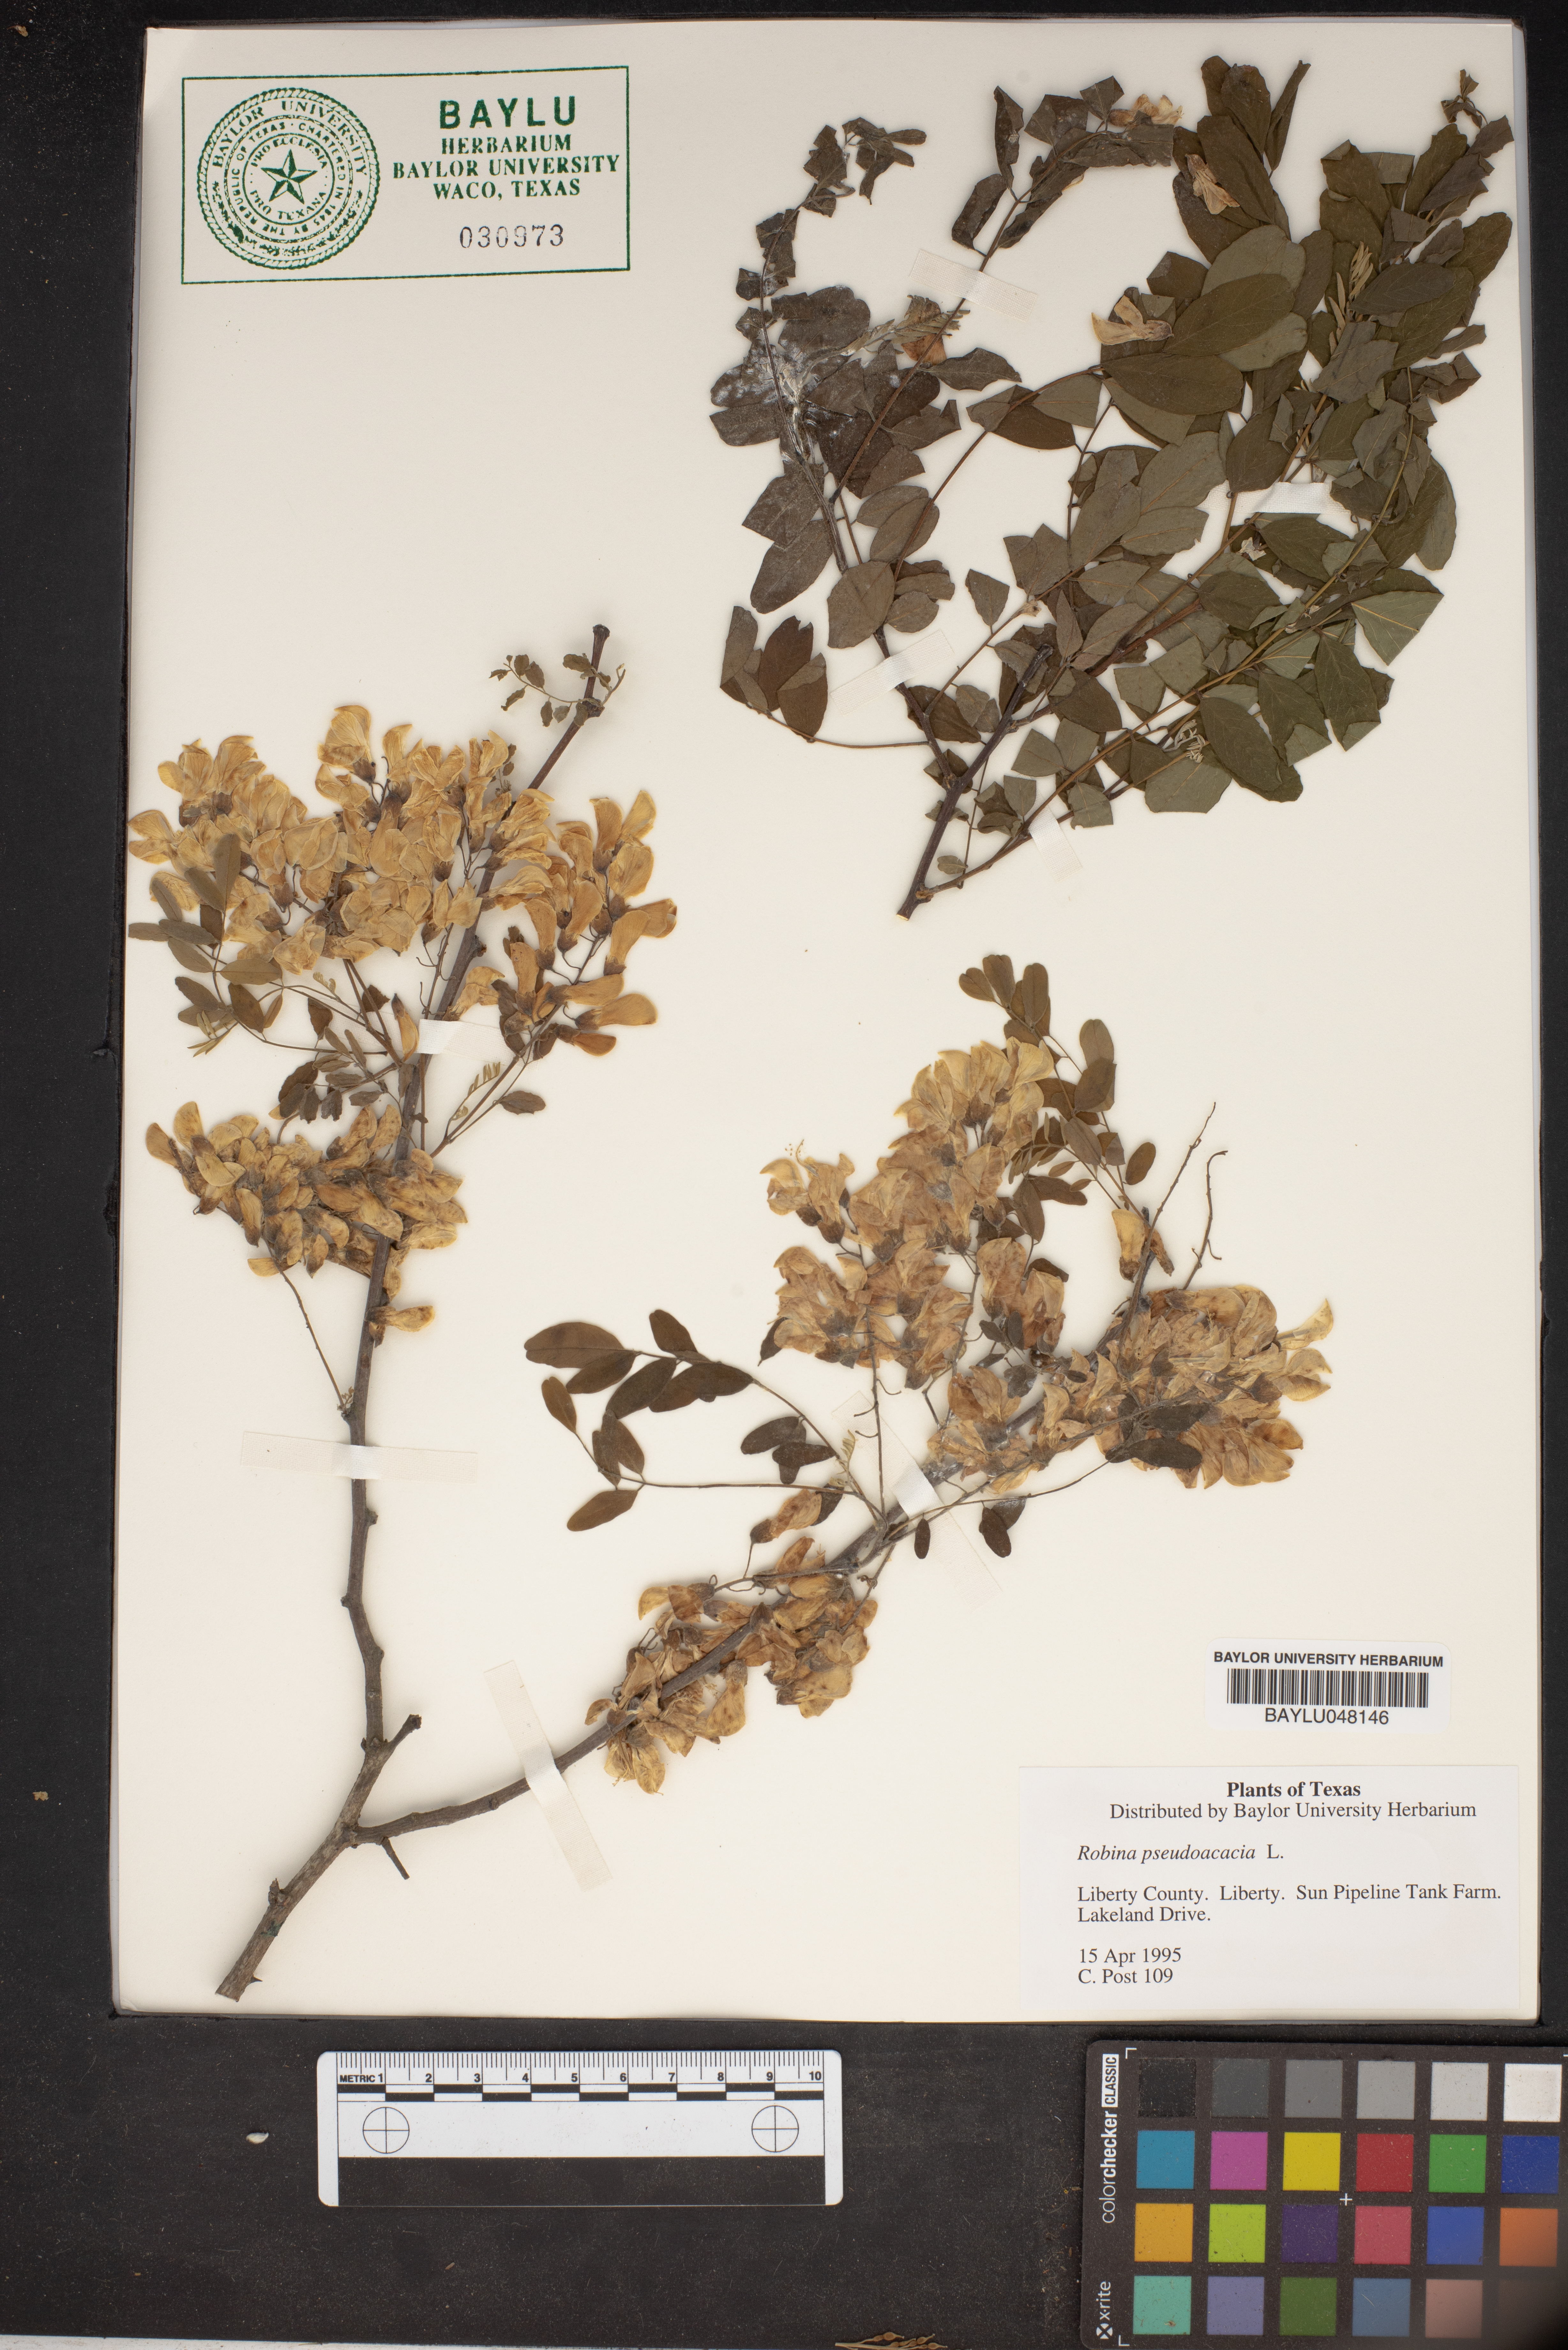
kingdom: Plantae
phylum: Tracheophyta
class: Magnoliopsida
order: Fabales
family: Fabaceae
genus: Robinia
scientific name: Robinia pseudoacacia
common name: Black locust
